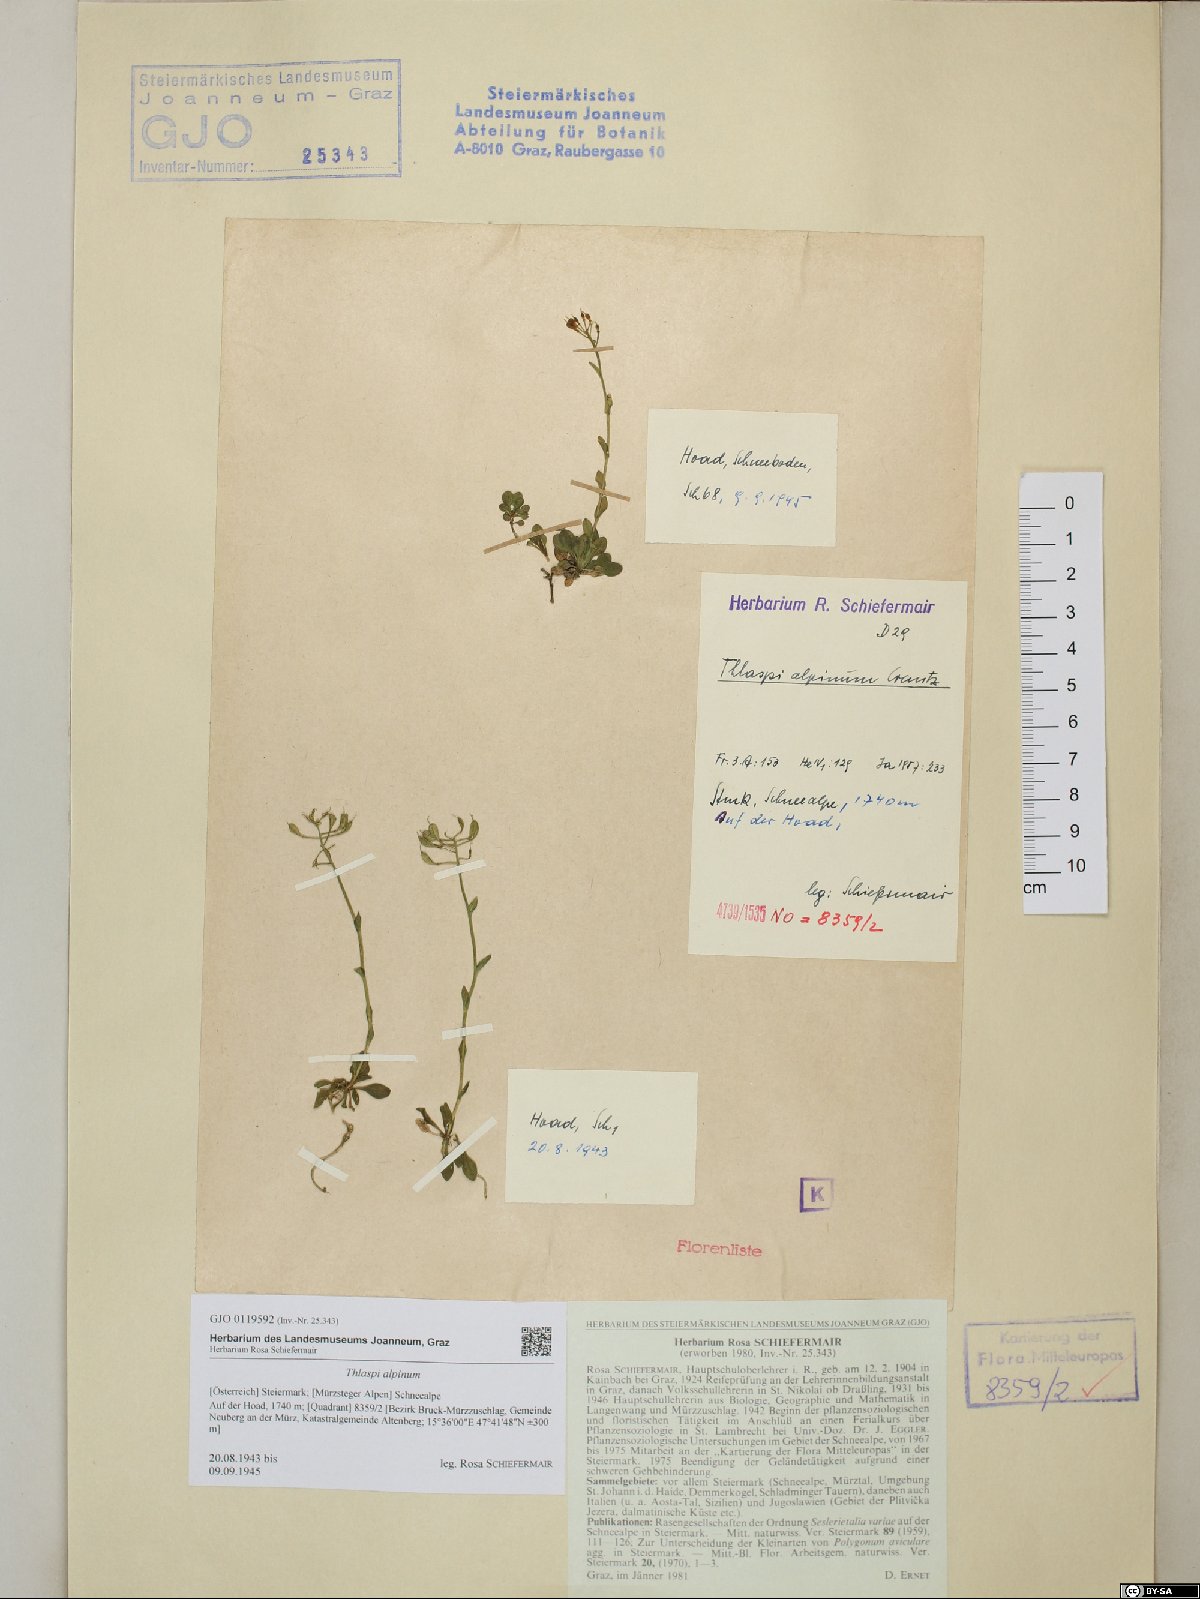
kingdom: Plantae
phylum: Tracheophyta
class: Magnoliopsida
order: Brassicales
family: Brassicaceae
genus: Noccaea
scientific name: Noccaea alpestris
